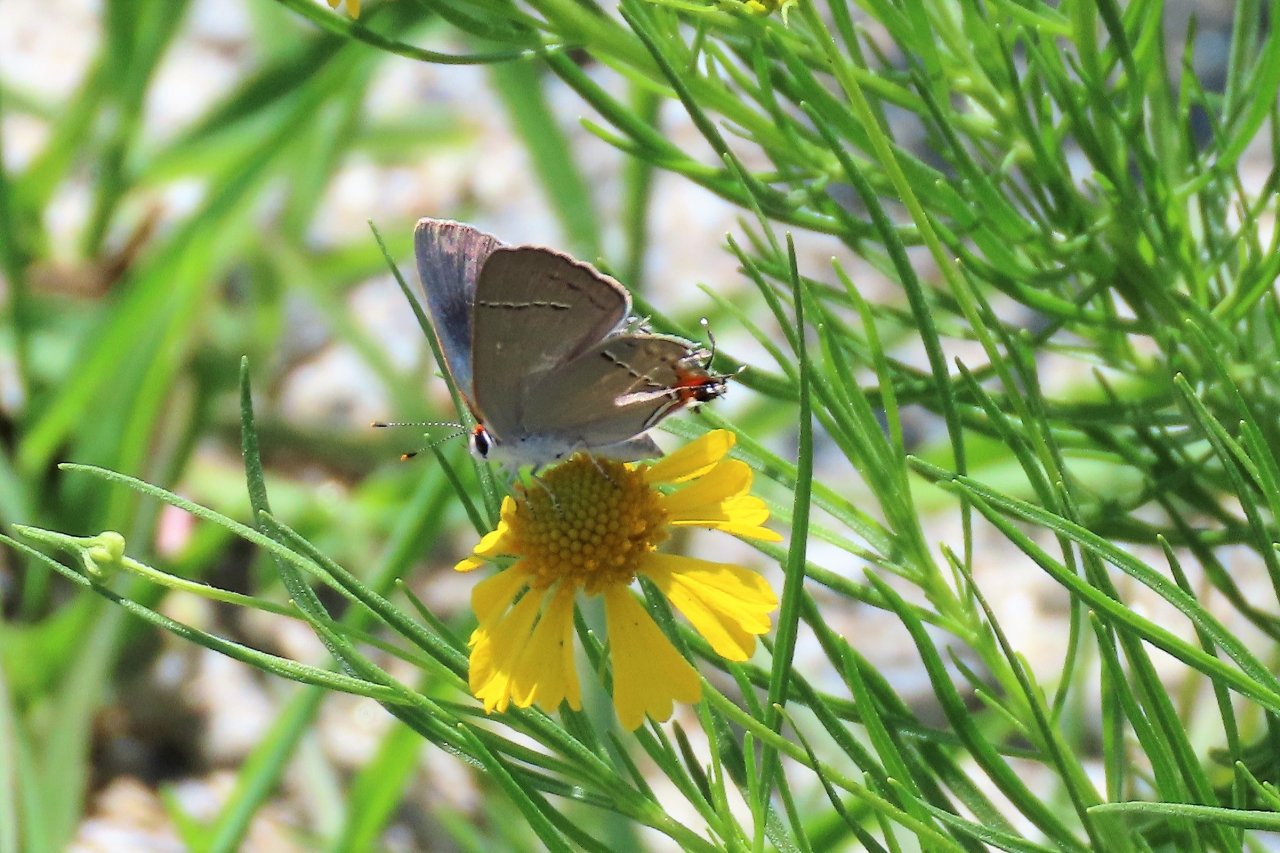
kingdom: Animalia
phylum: Arthropoda
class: Insecta
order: Lepidoptera
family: Lycaenidae
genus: Strymon
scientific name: Strymon melinus
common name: Gray Hairstreak
